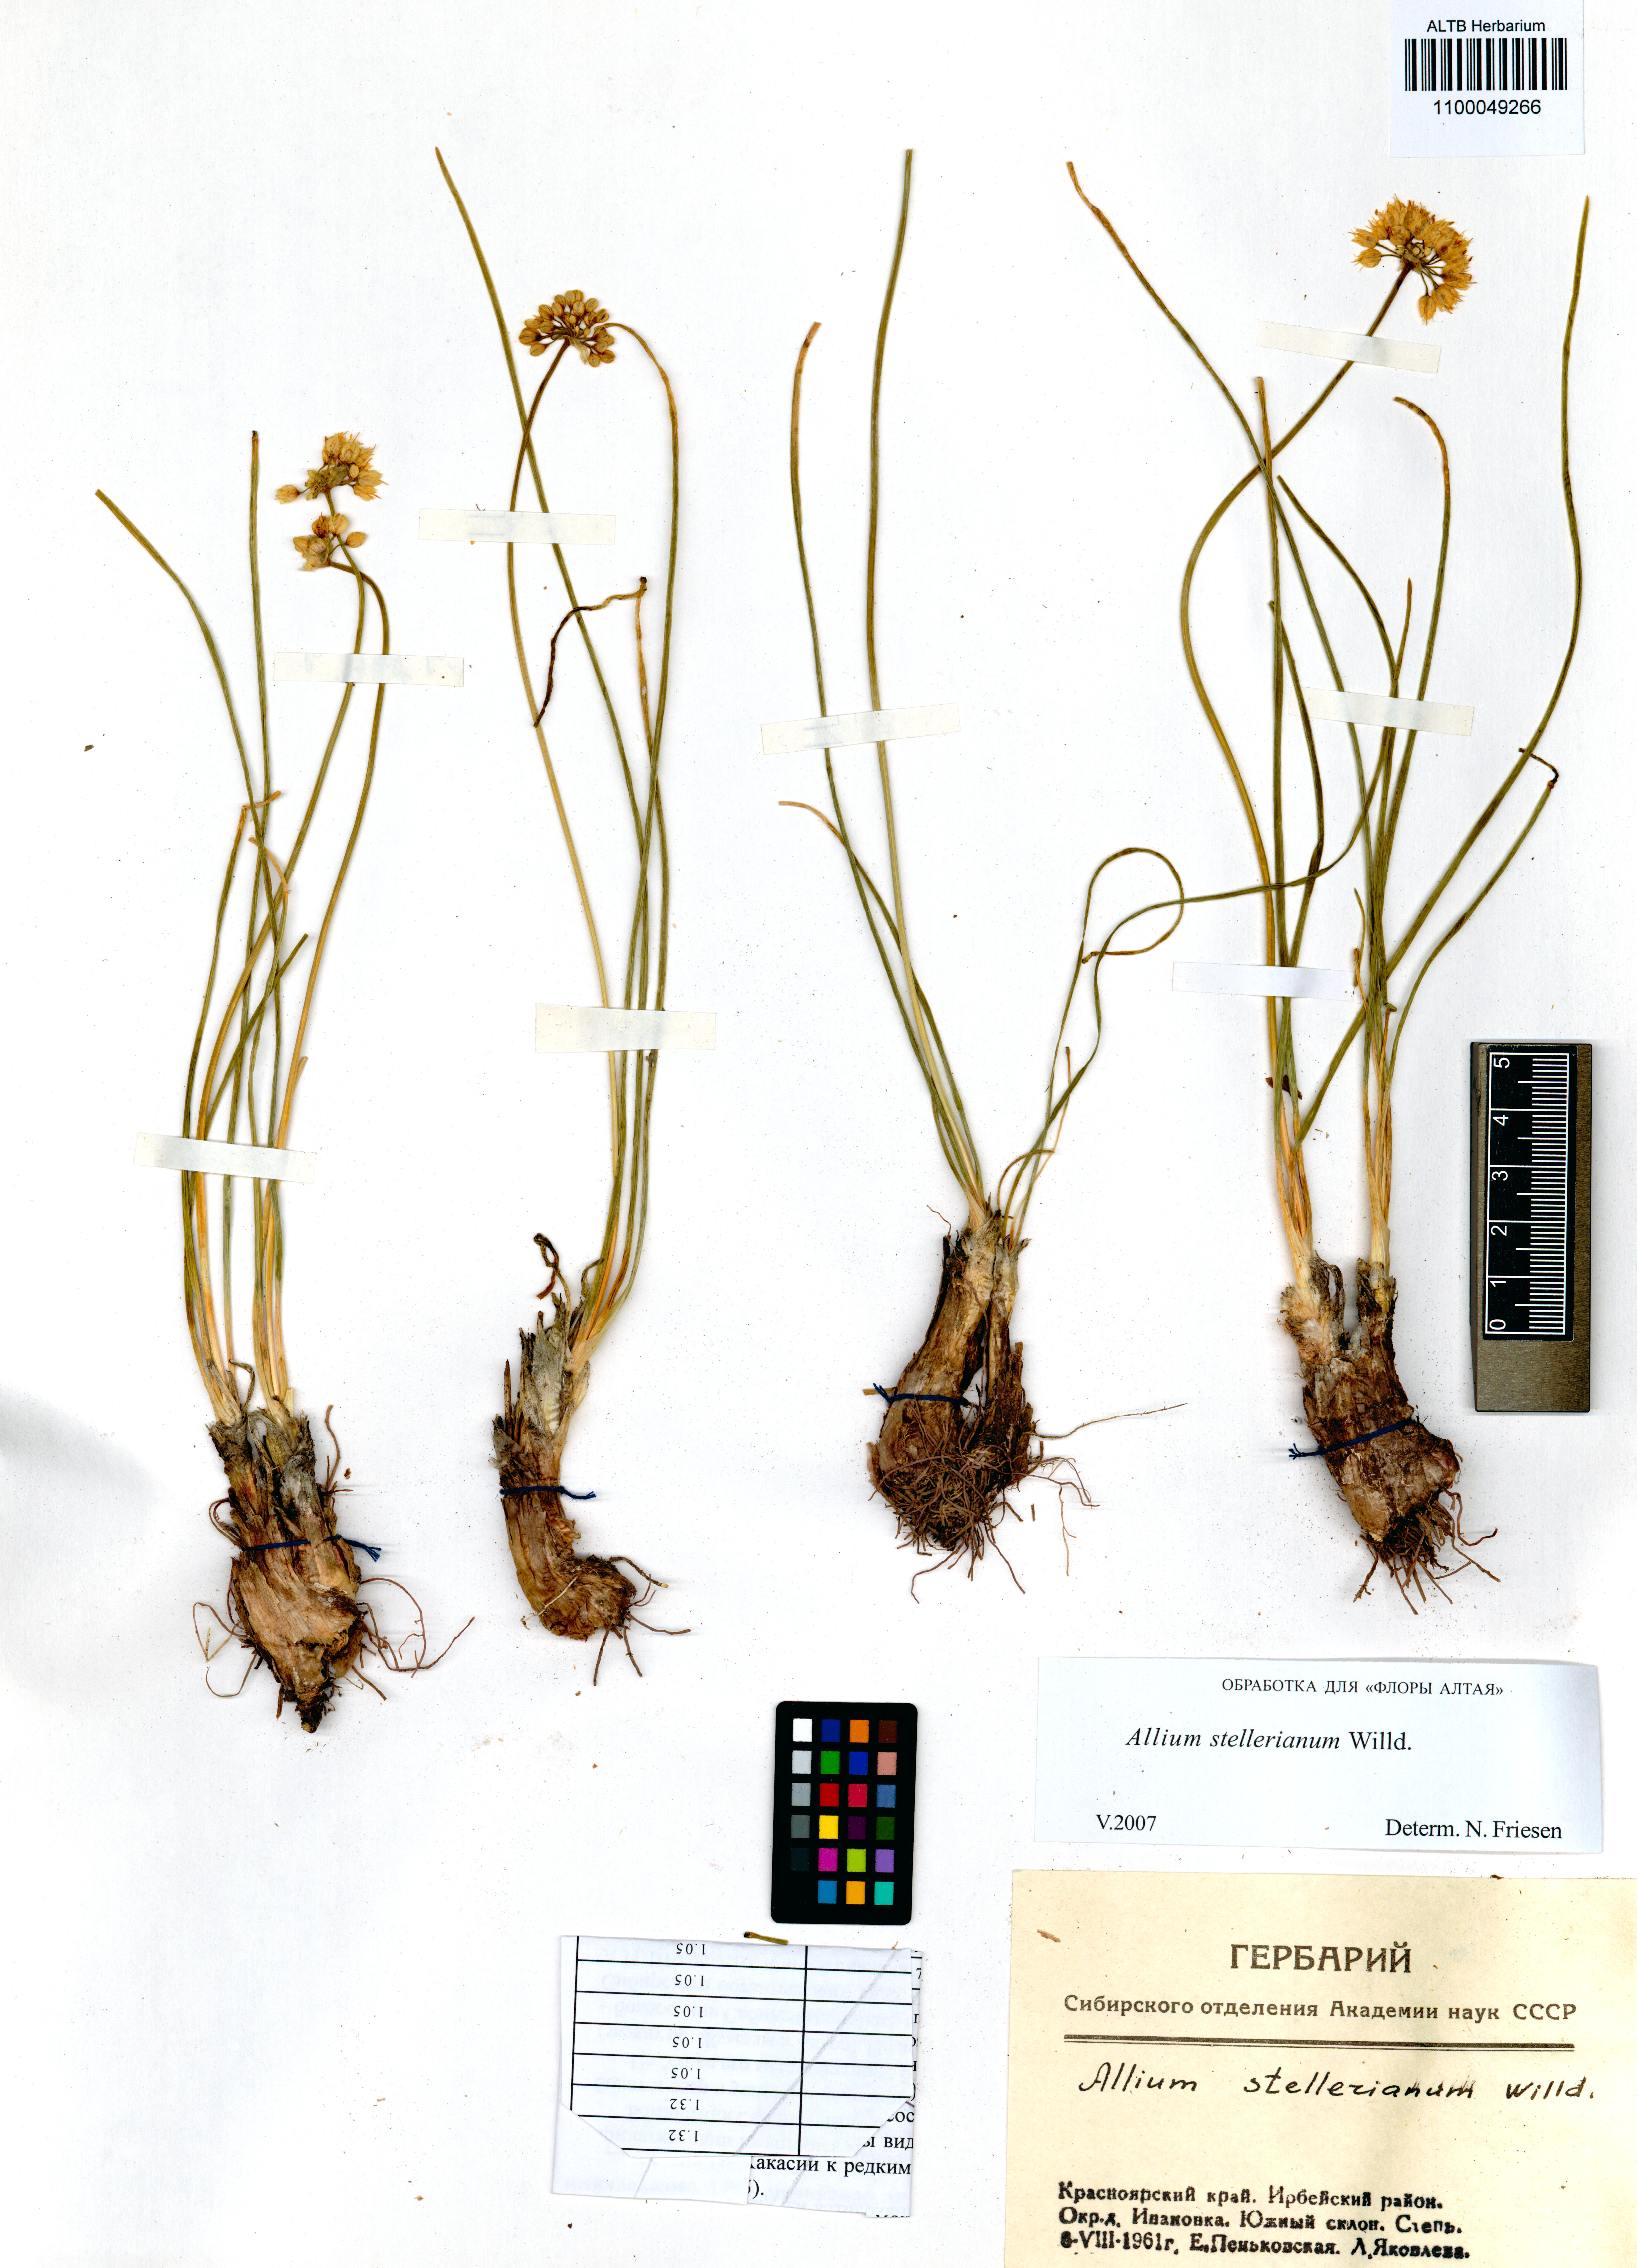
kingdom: Plantae
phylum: Tracheophyta
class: Liliopsida
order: Asparagales
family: Amaryllidaceae
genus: Allium
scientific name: Allium stellerianum
